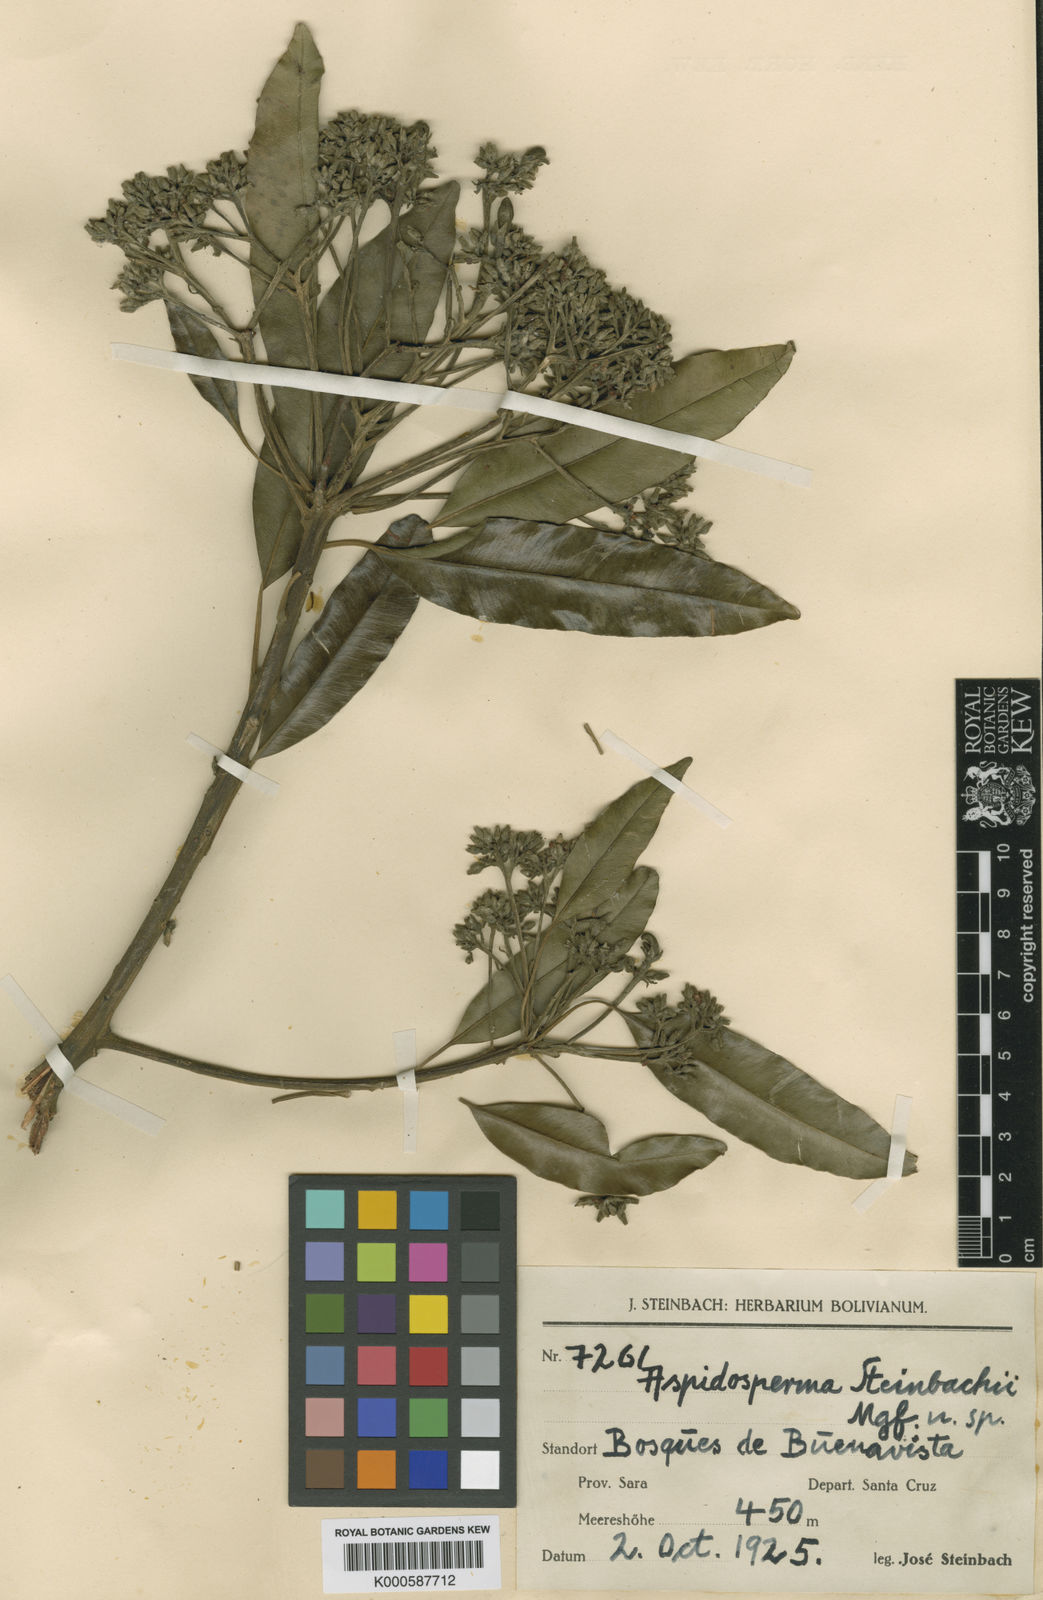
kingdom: Plantae
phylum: Tracheophyta
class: Magnoliopsida
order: Gentianales
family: Apocynaceae
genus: Aspidosperma
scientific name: Aspidosperma spruceanum
